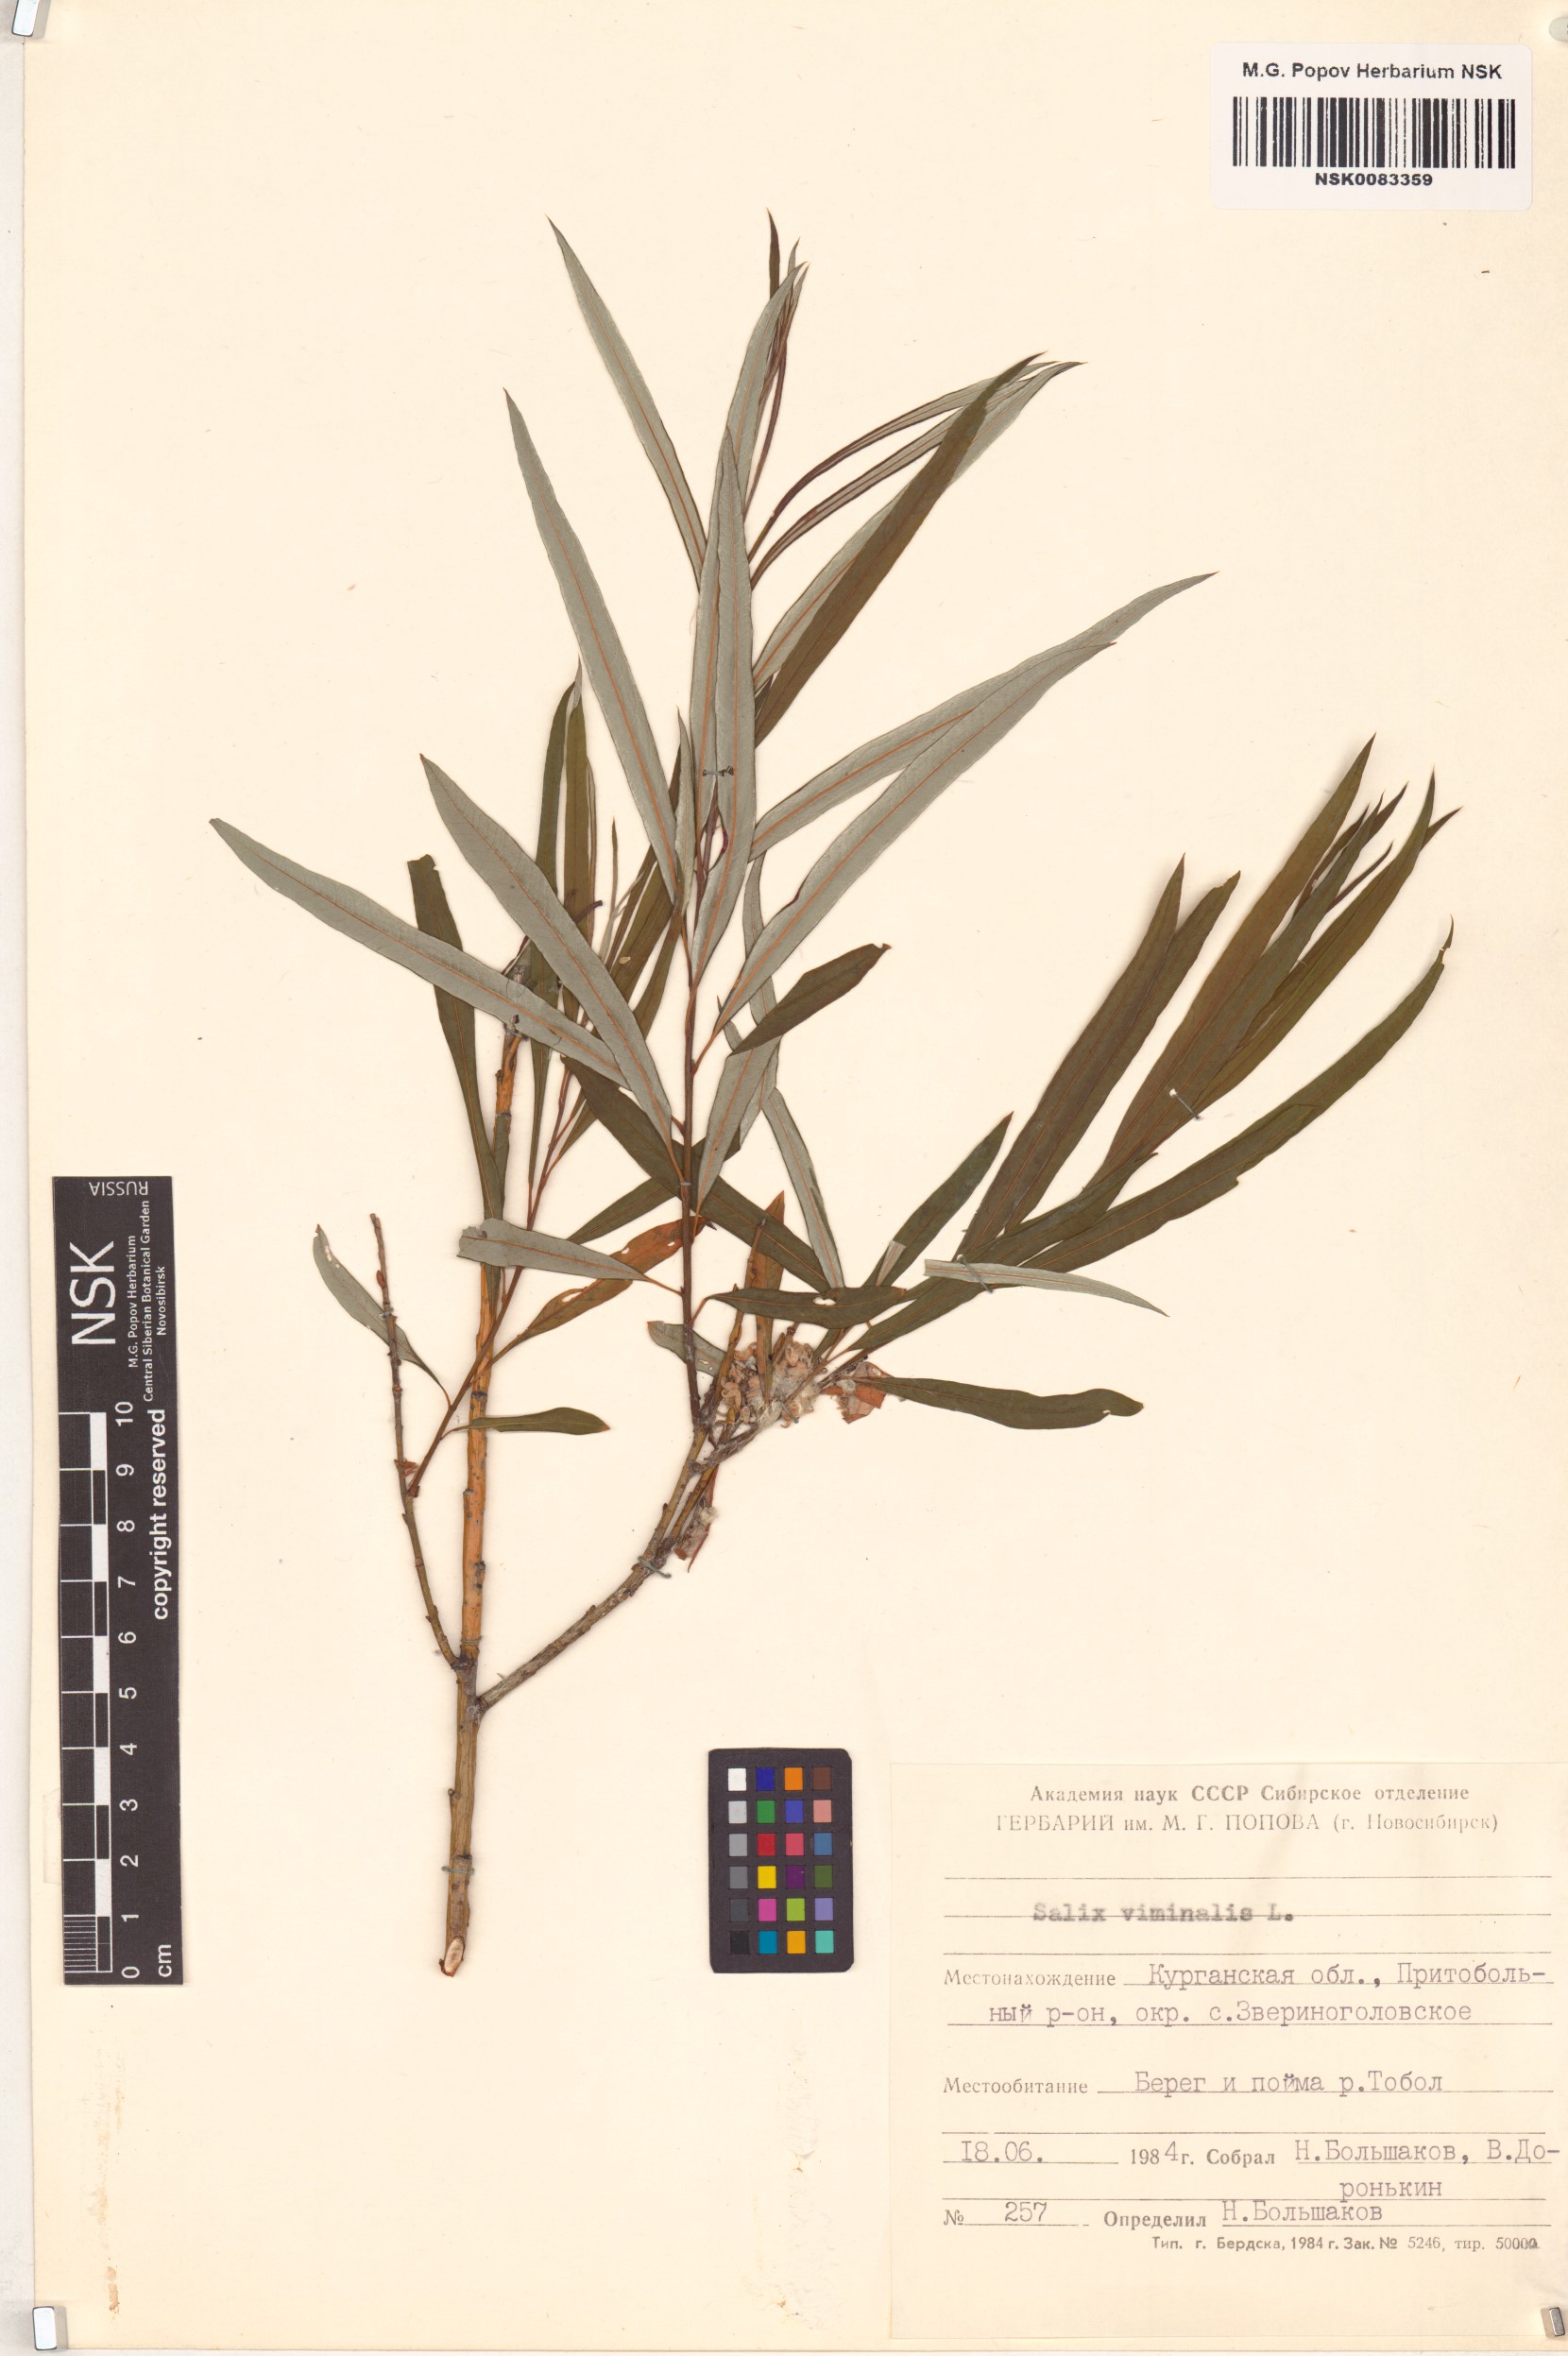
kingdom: Plantae
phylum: Tracheophyta
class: Magnoliopsida
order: Malpighiales
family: Salicaceae
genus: Salix
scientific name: Salix viminalis
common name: Osier
